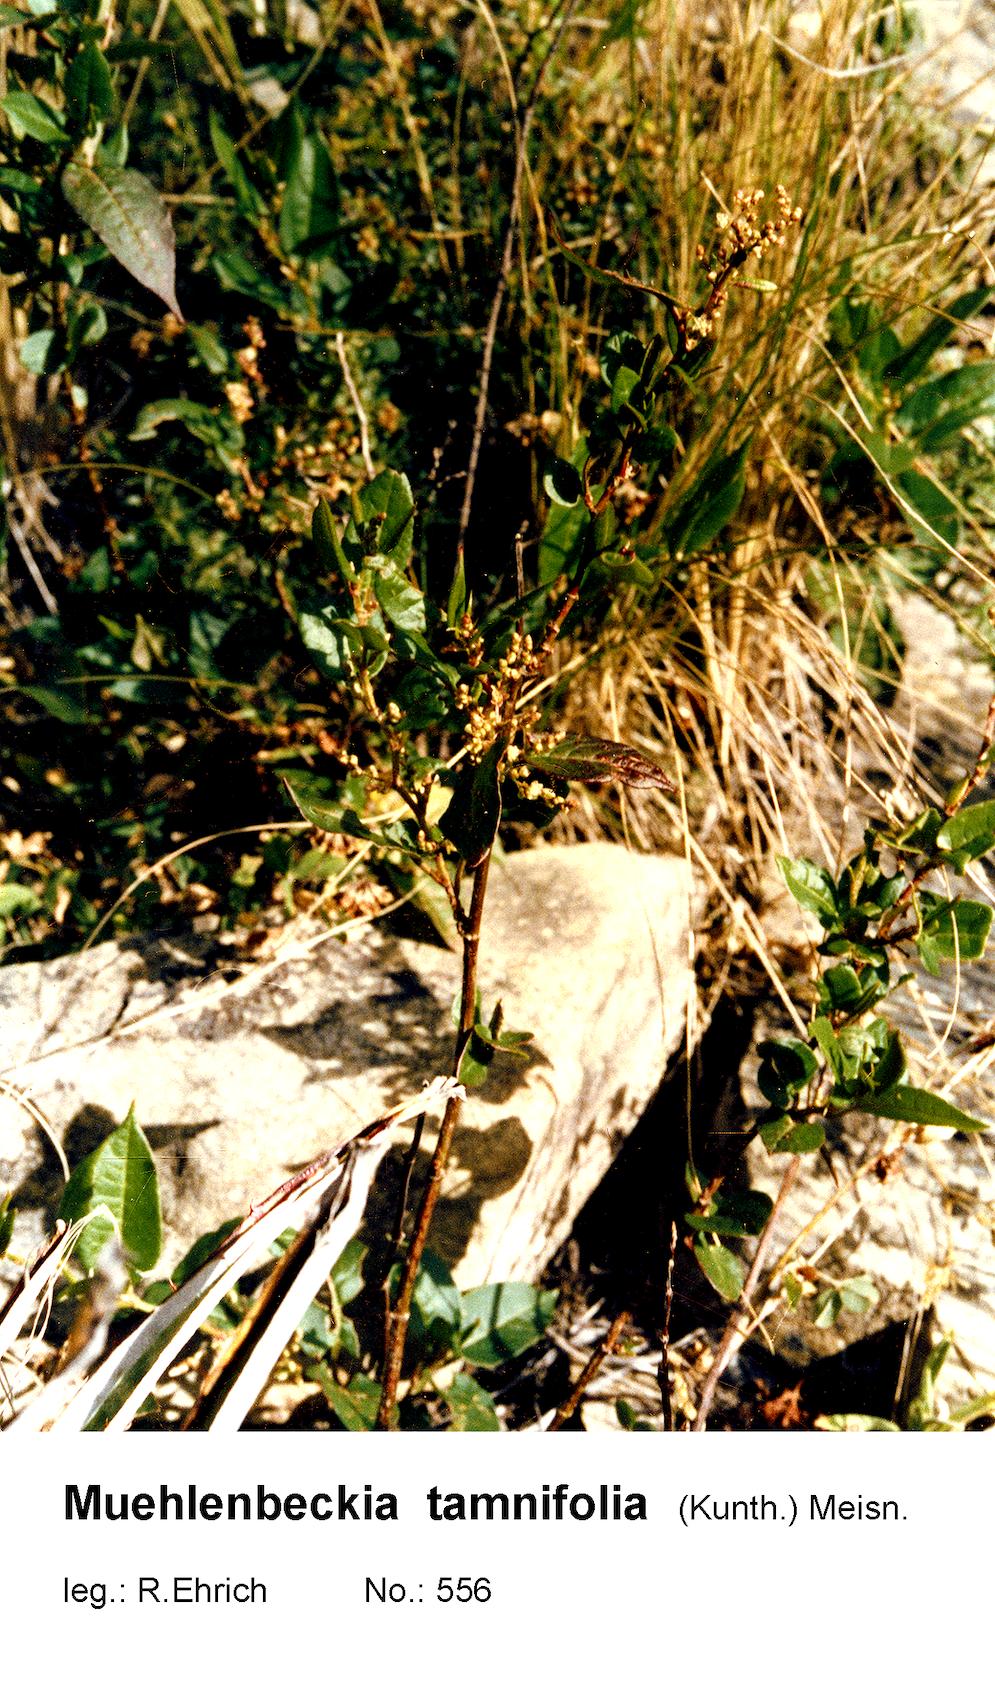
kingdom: Plantae
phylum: Tracheophyta
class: Magnoliopsida
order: Caryophyllales
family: Polygonaceae
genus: Muehlenbeckia
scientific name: Muehlenbeckia tamnifolia
